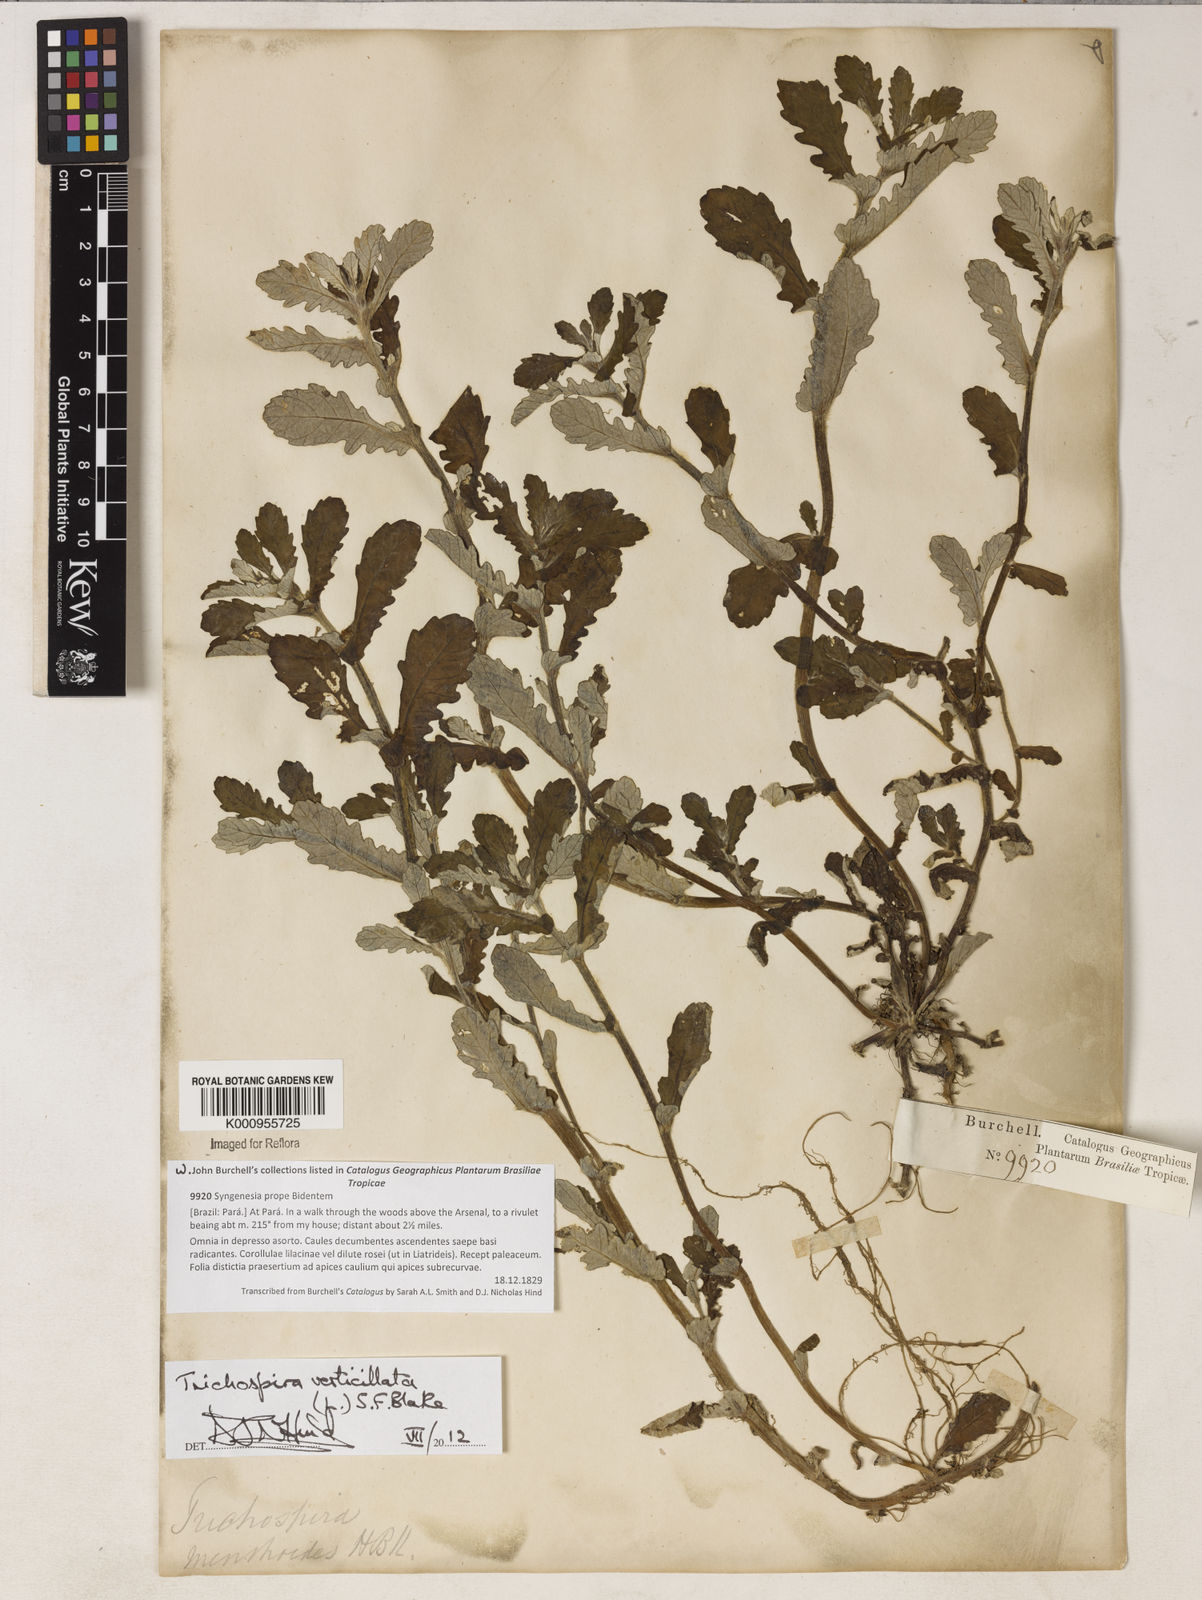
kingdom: Plantae
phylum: Tracheophyta
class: Magnoliopsida
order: Asterales
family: Asteraceae
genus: Trichospira
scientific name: Trichospira
